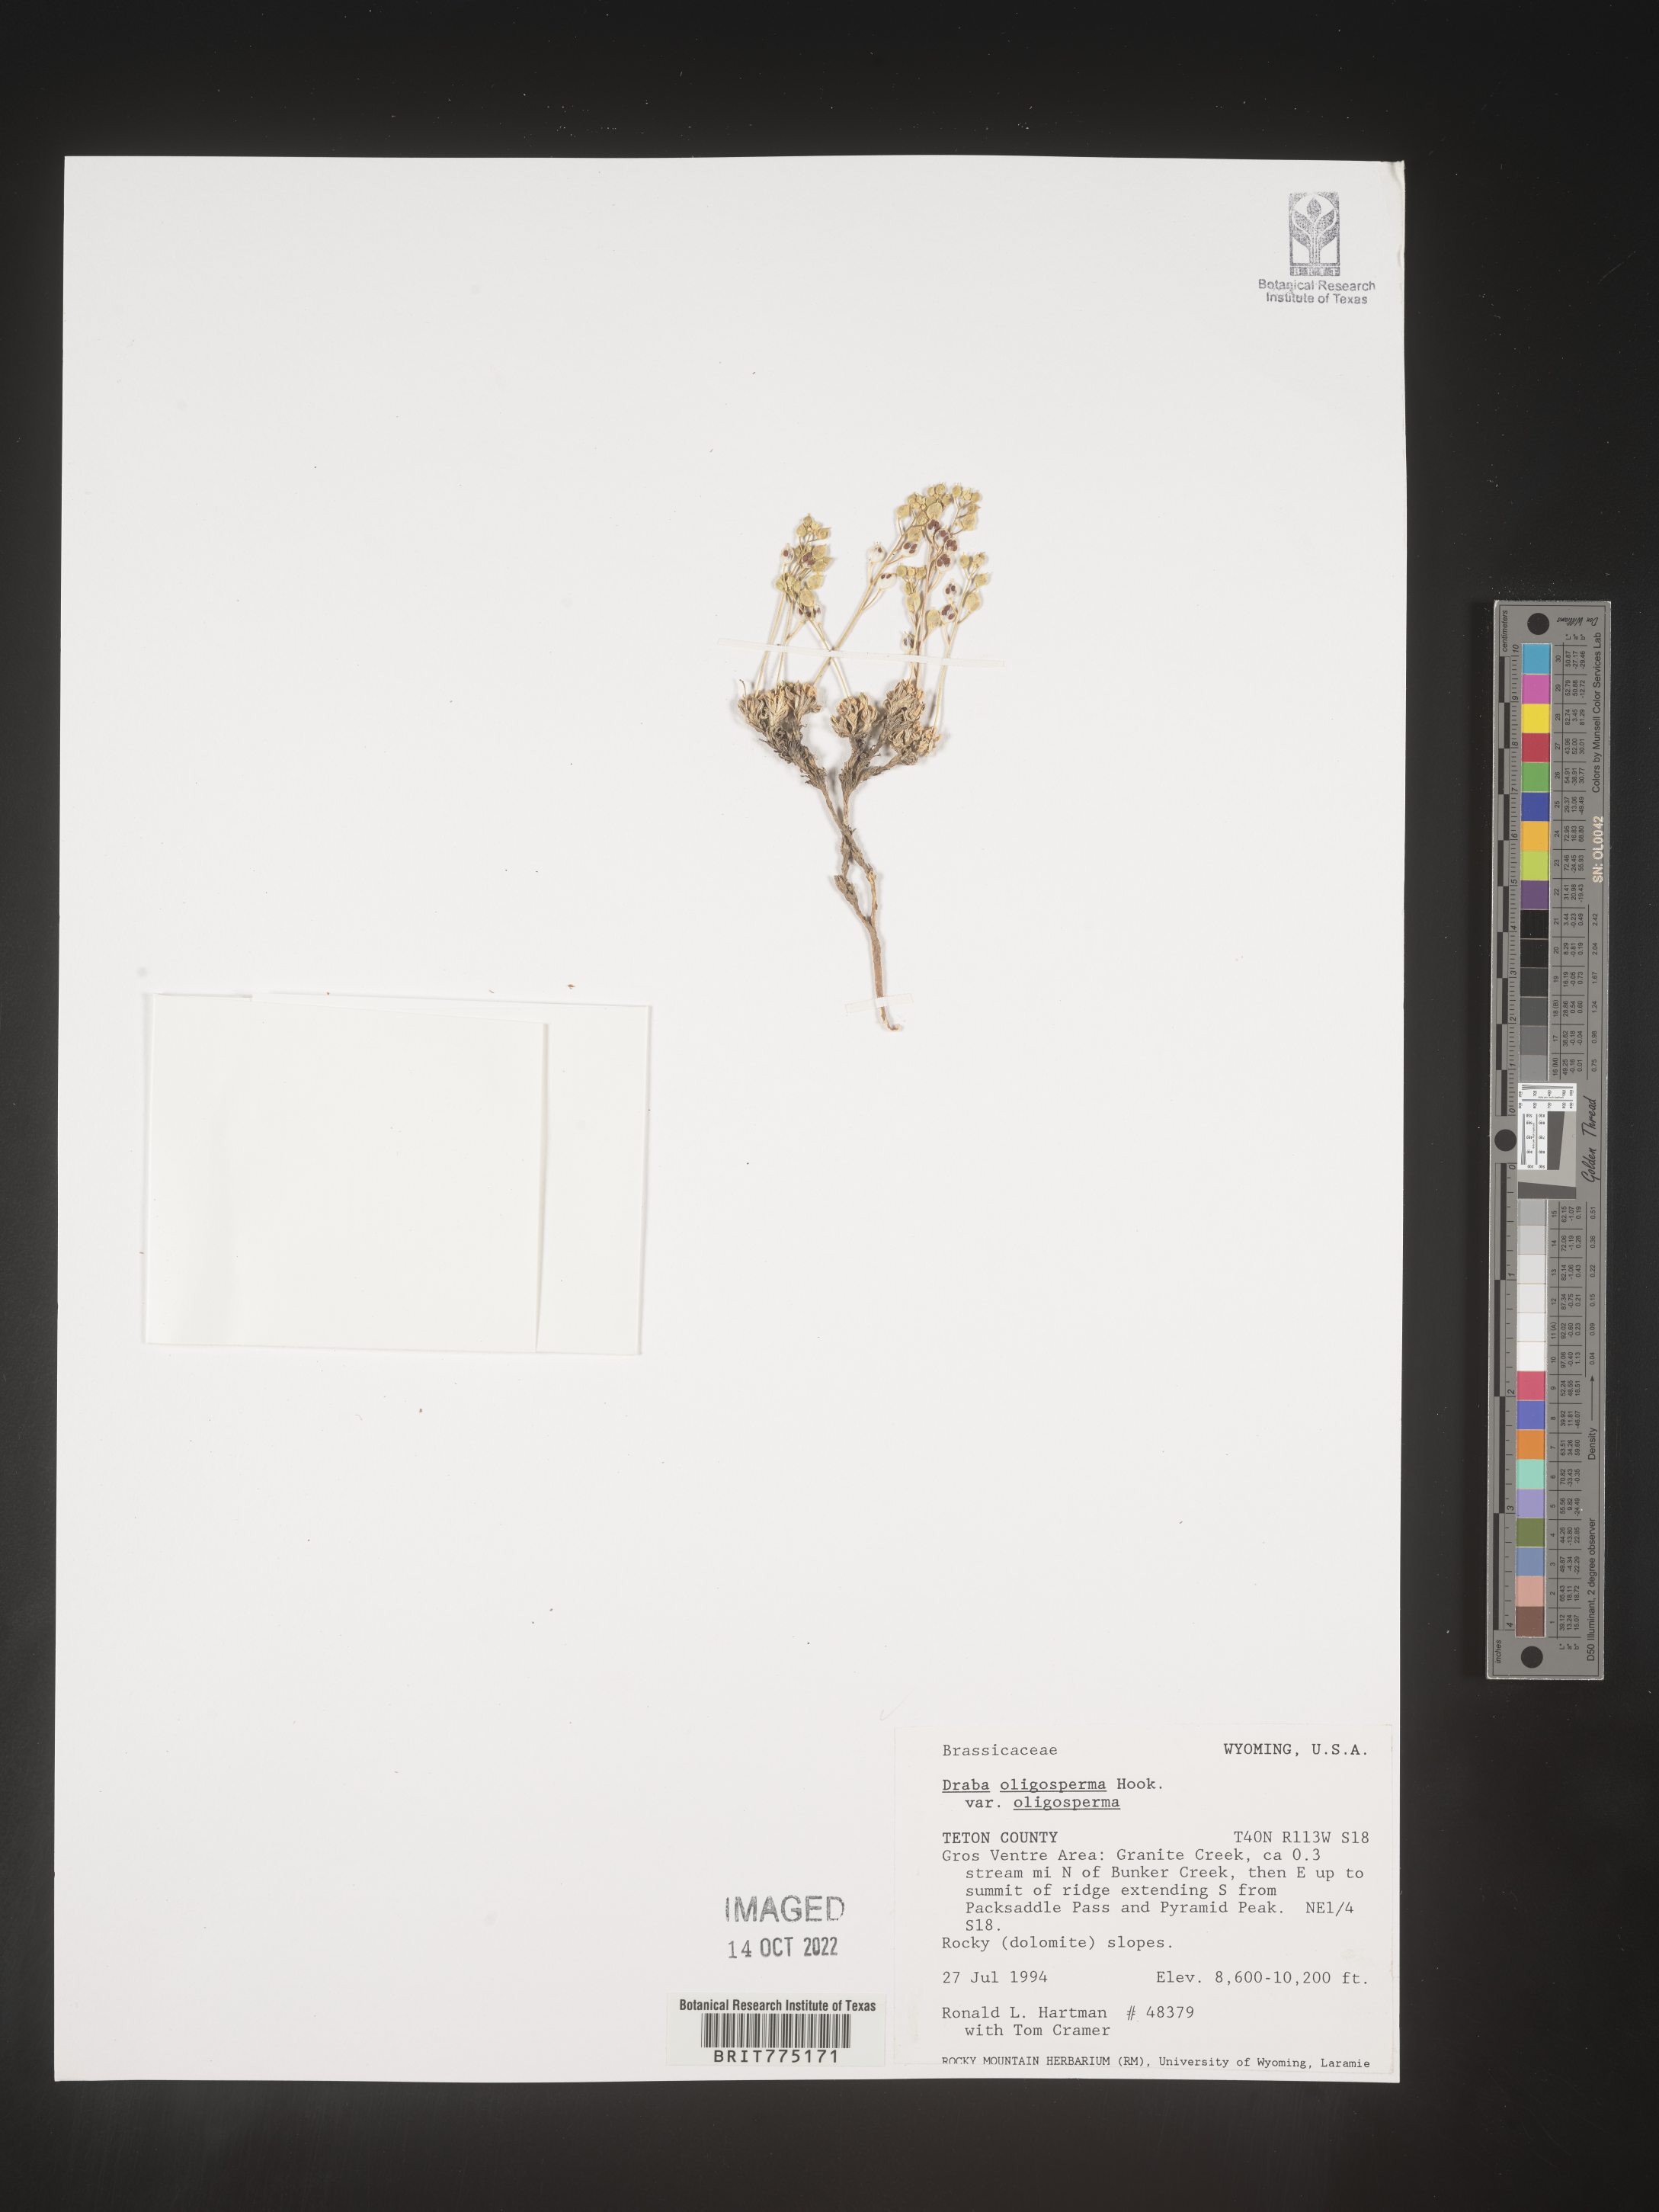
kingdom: Plantae
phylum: Tracheophyta
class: Magnoliopsida
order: Brassicales
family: Brassicaceae
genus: Draba
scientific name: Draba
